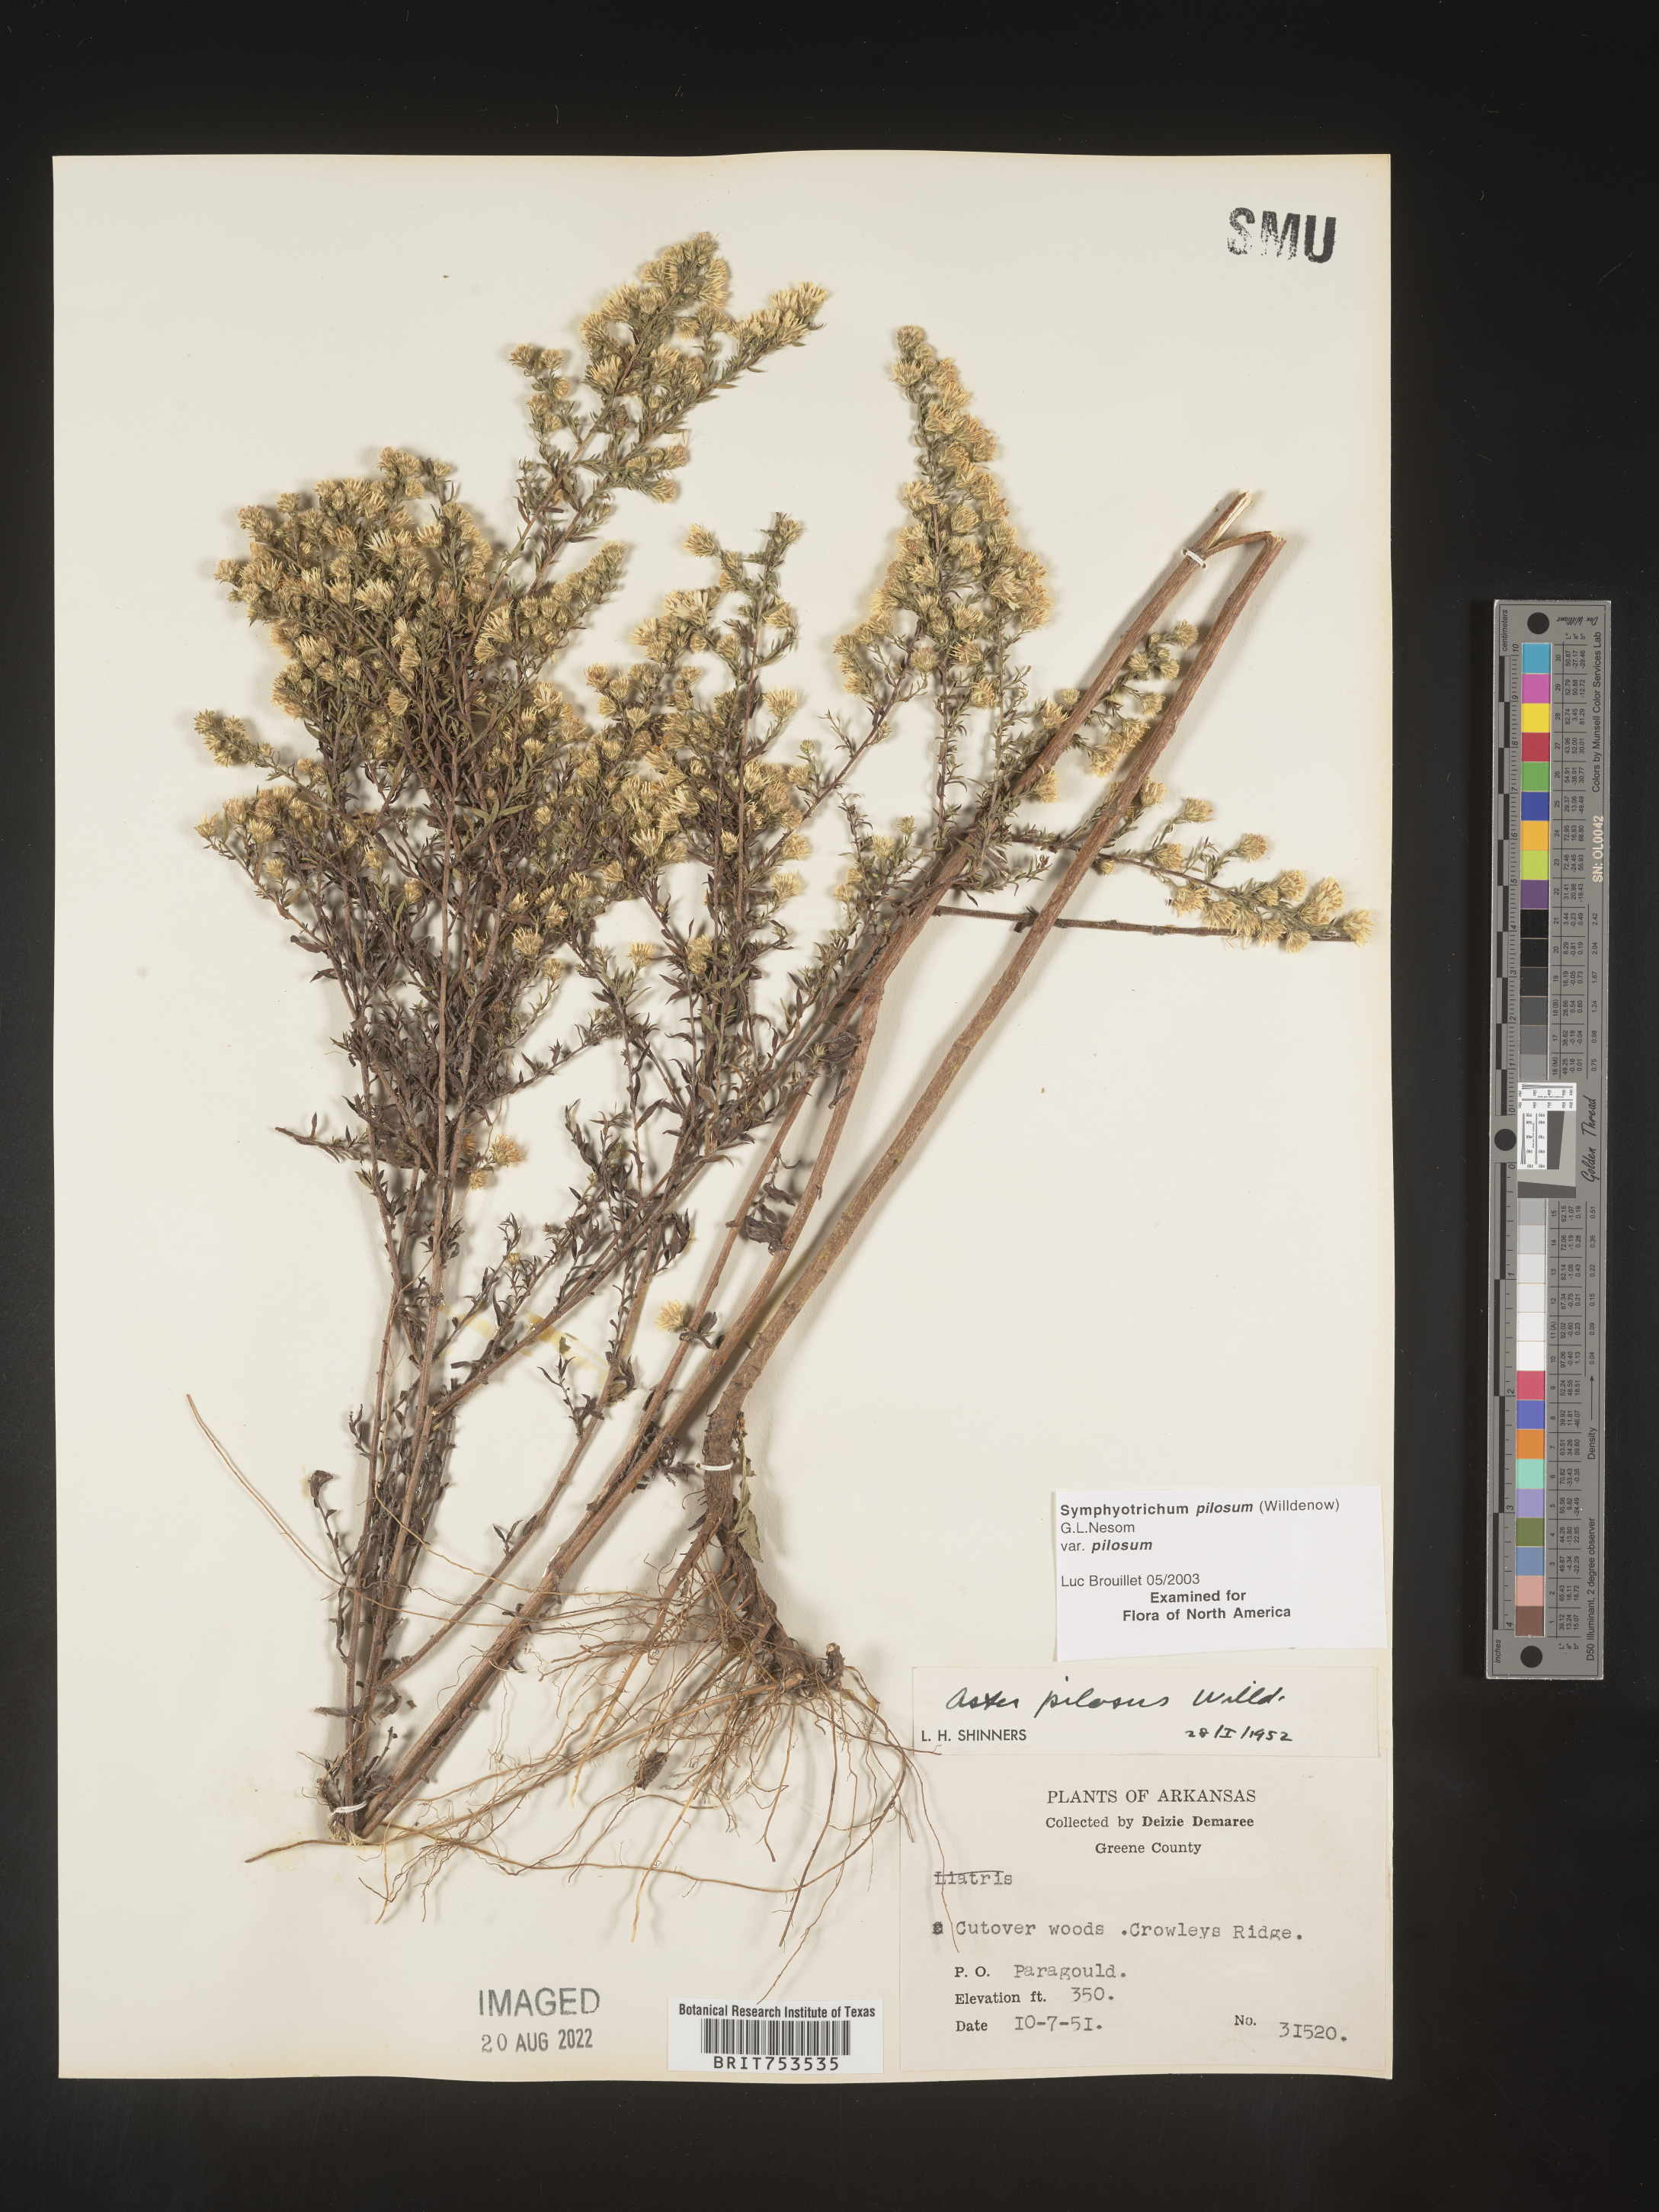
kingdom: Plantae
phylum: Tracheophyta
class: Magnoliopsida
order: Asterales
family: Asteraceae
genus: Symphyotrichum
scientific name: Symphyotrichum pilosum
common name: Awl aster
